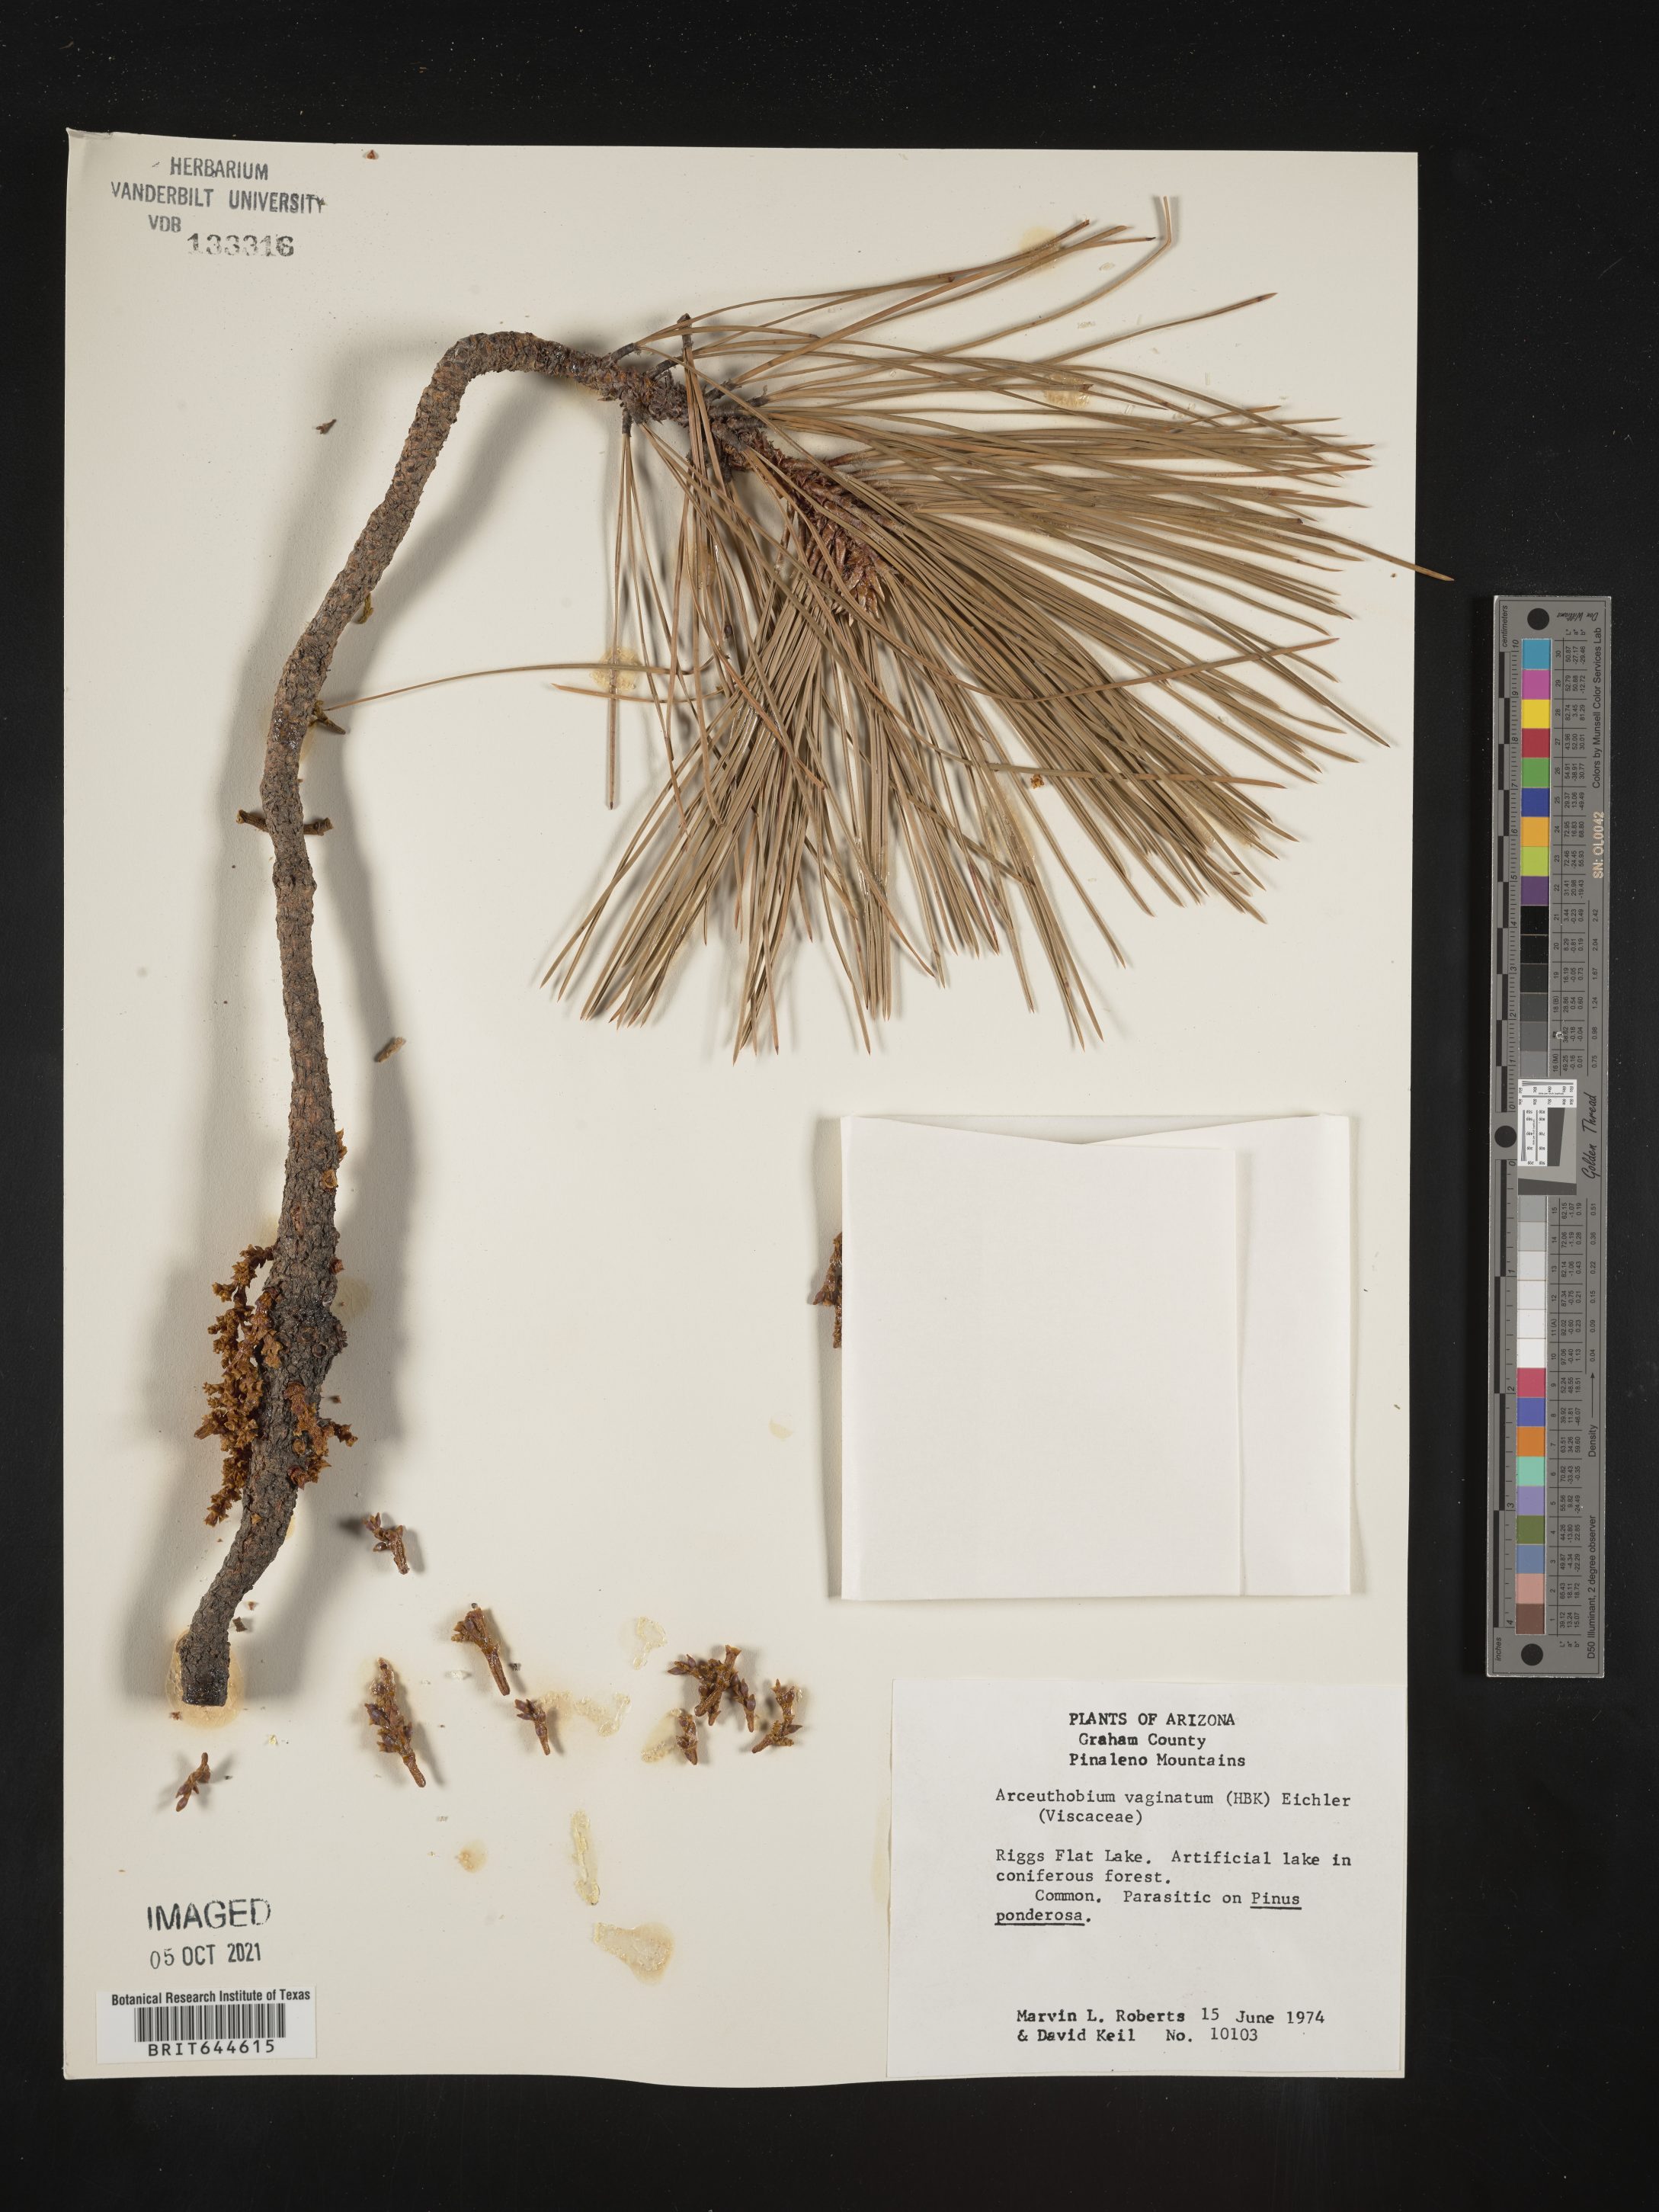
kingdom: Plantae
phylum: Tracheophyta
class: Magnoliopsida
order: Santalales
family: Viscaceae
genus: Arceuthobium
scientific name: Arceuthobium vaginatum
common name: Southwestern dwarf-mistletoe
